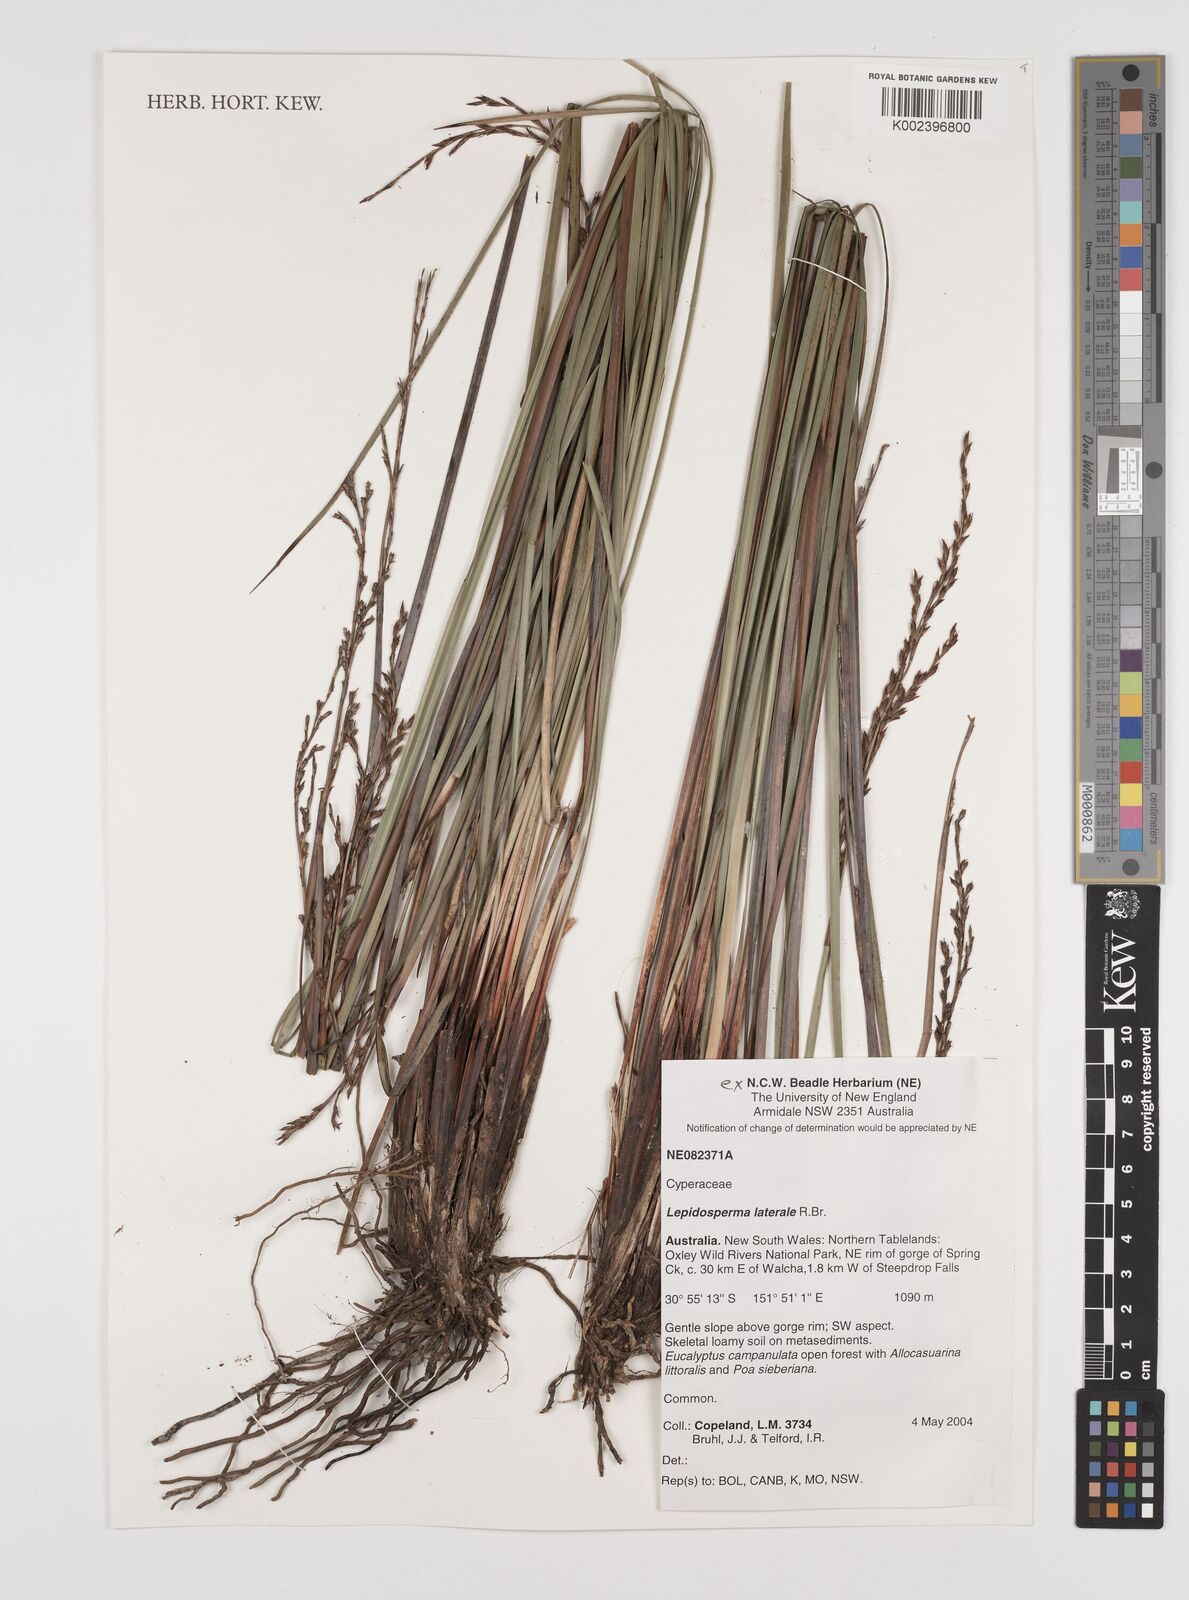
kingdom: Plantae
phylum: Tracheophyta
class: Liliopsida
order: Poales
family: Cyperaceae
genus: Lepidosperma
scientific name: Lepidosperma laterale
